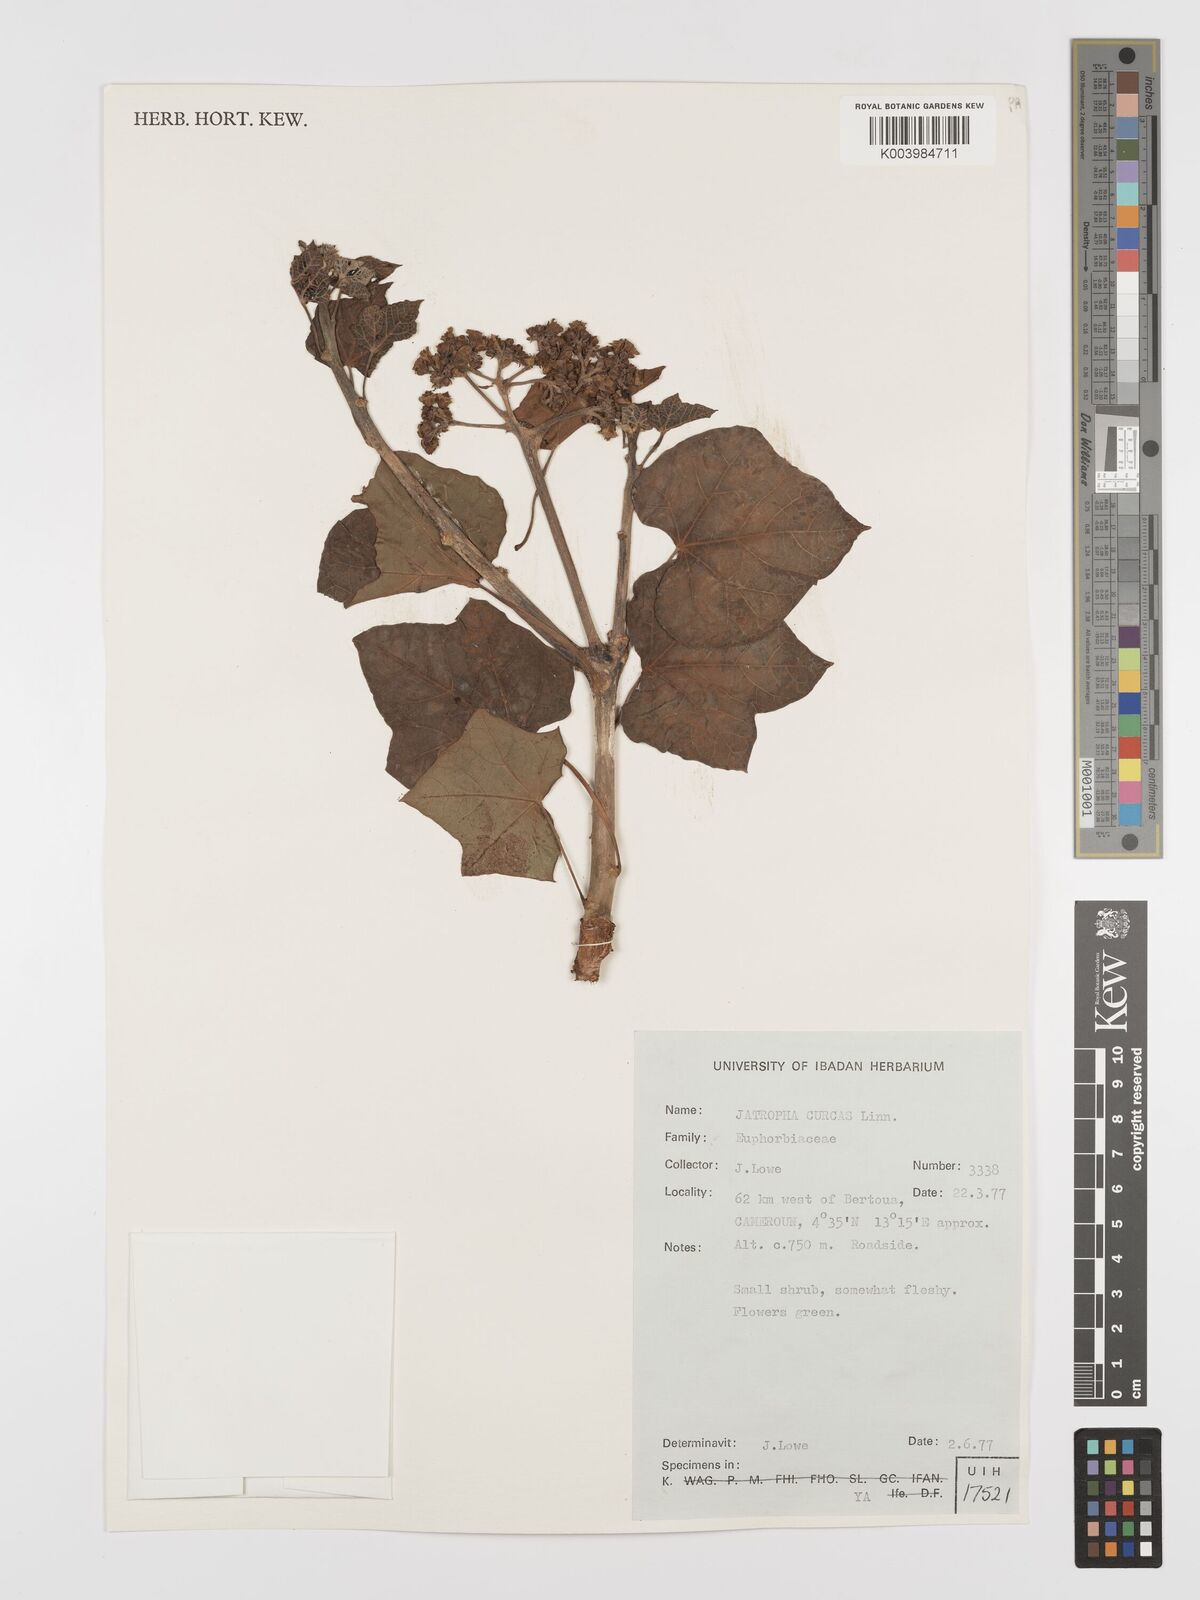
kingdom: Plantae
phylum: Tracheophyta
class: Magnoliopsida
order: Malpighiales
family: Euphorbiaceae
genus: Jatropha
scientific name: Jatropha curcas
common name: Barbados nut
